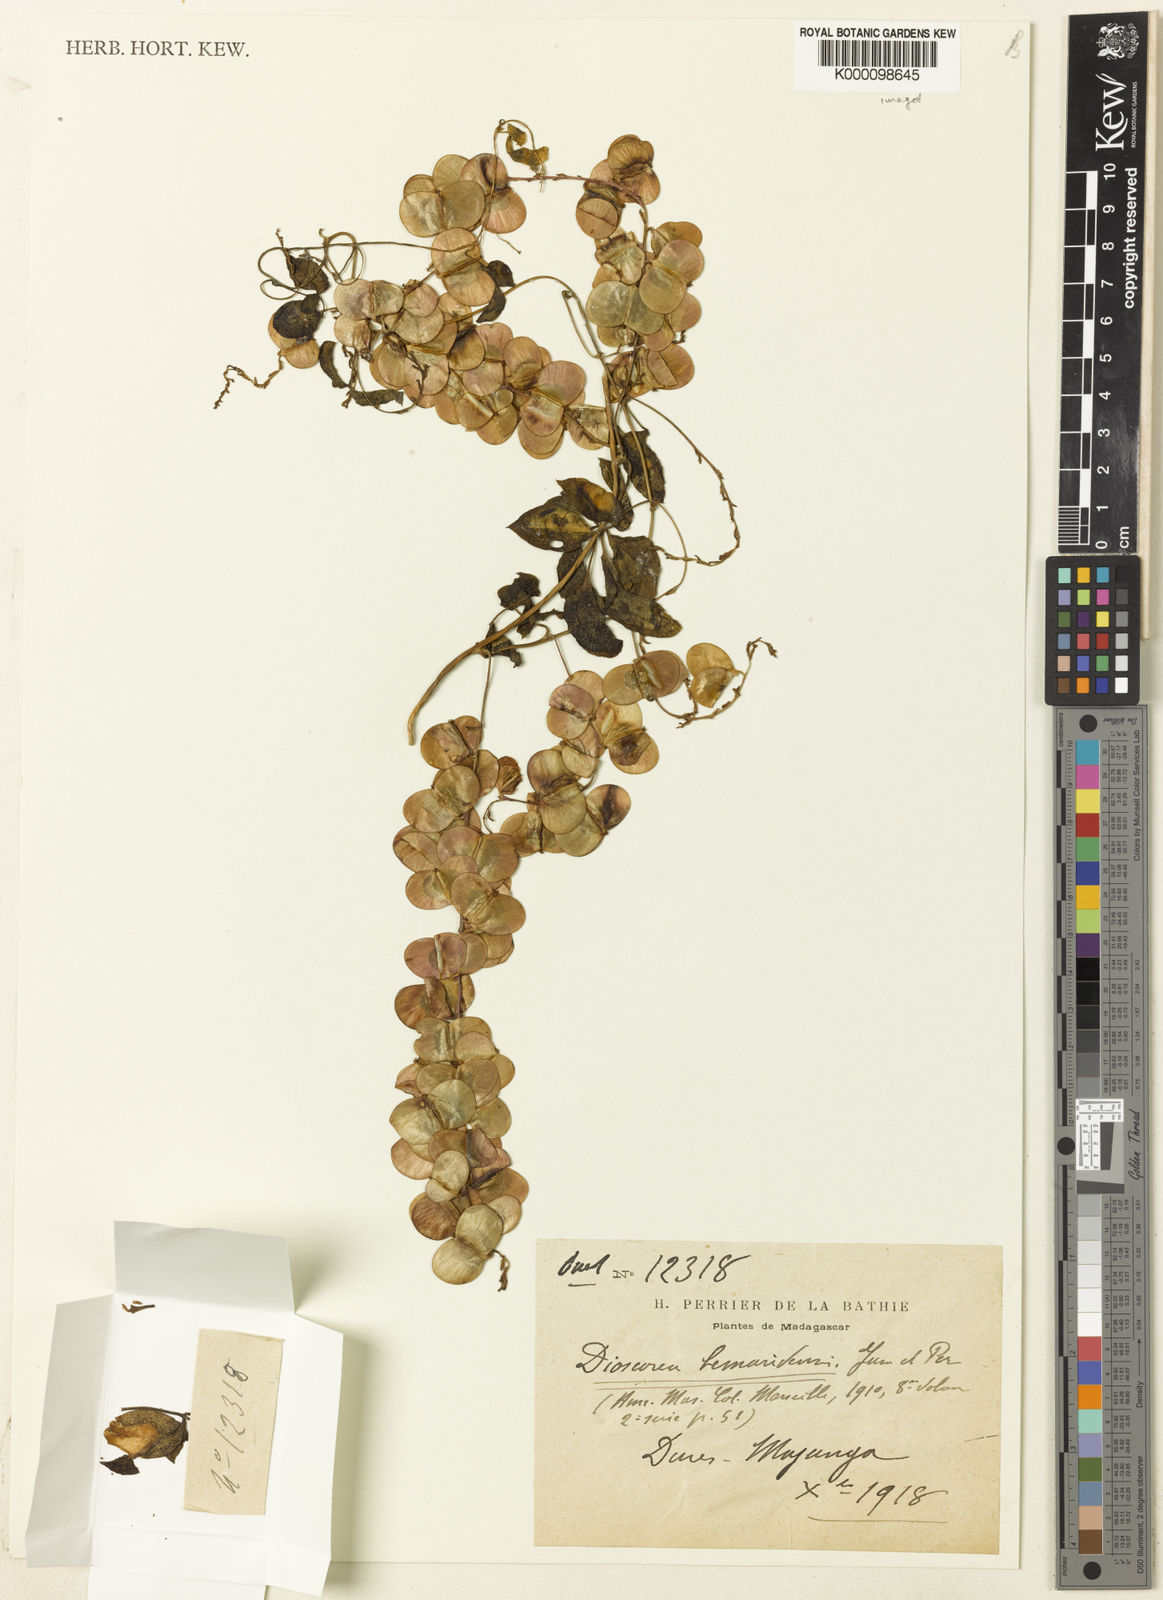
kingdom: Plantae
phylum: Tracheophyta
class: Liliopsida
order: Dioscoreales
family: Dioscoreaceae
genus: Dioscorea
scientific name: Dioscorea bemarivensis
